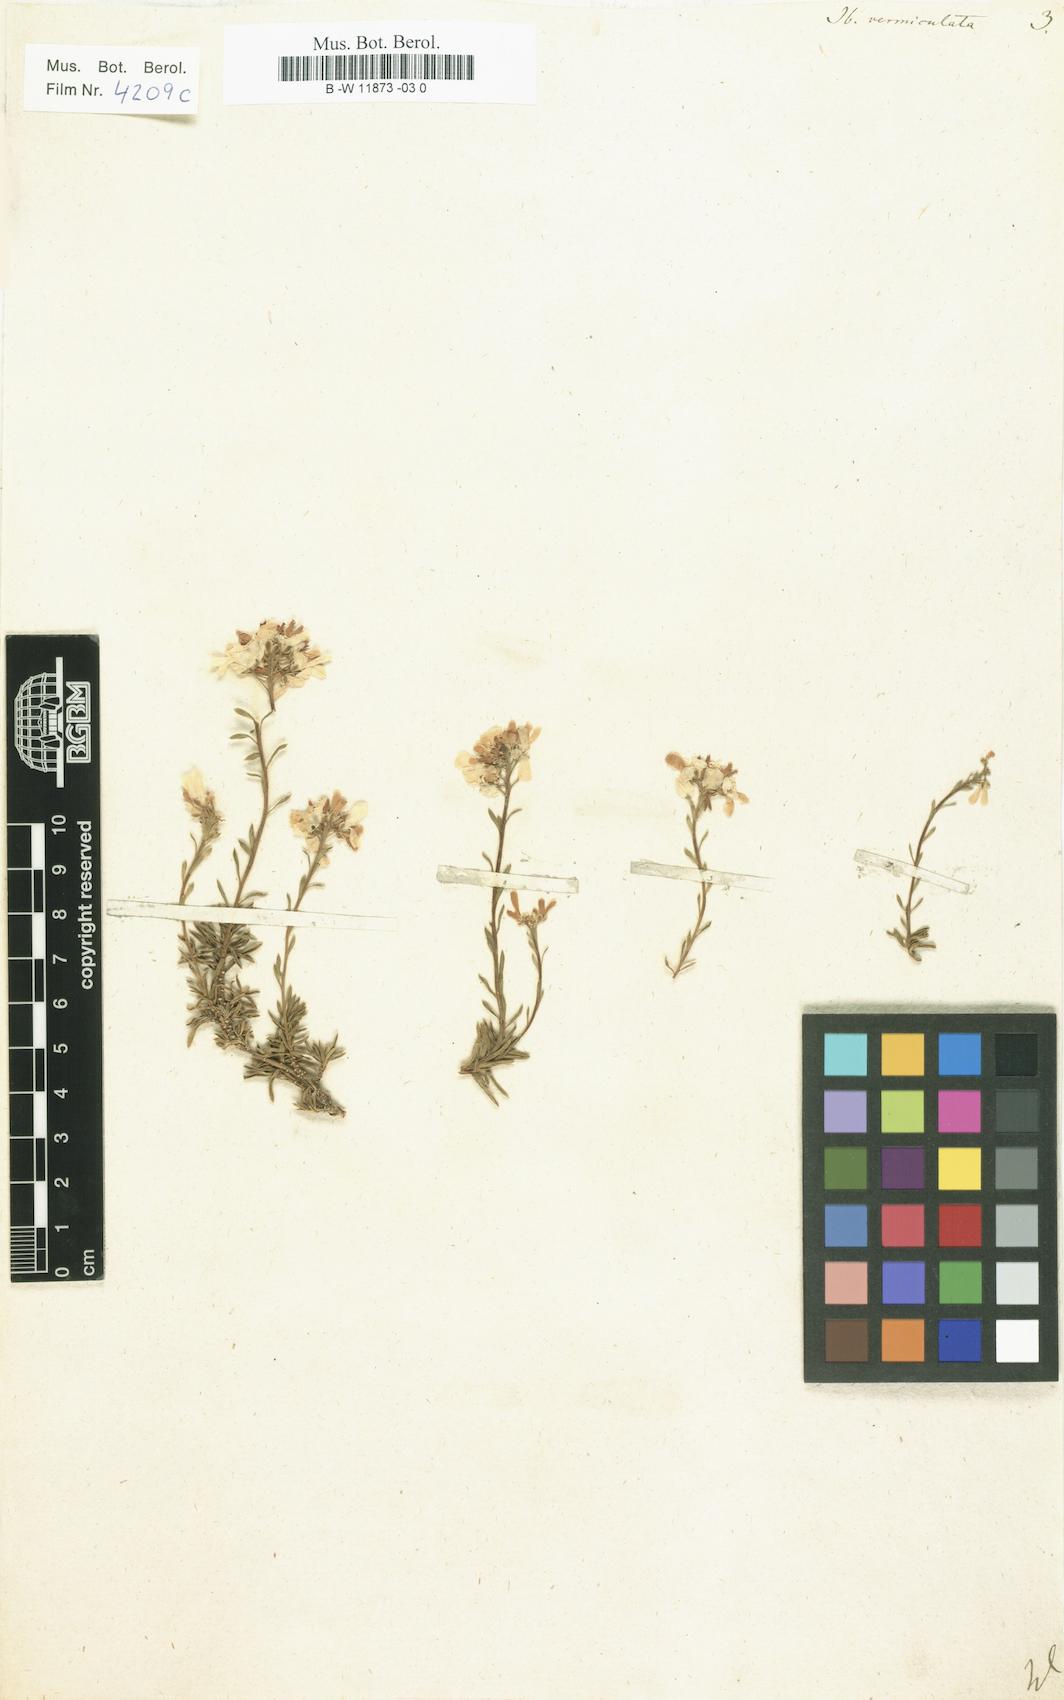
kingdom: Plantae
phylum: Tracheophyta
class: Magnoliopsida
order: Brassicales
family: Brassicaceae
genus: Iberis
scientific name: Iberis saxatilis
